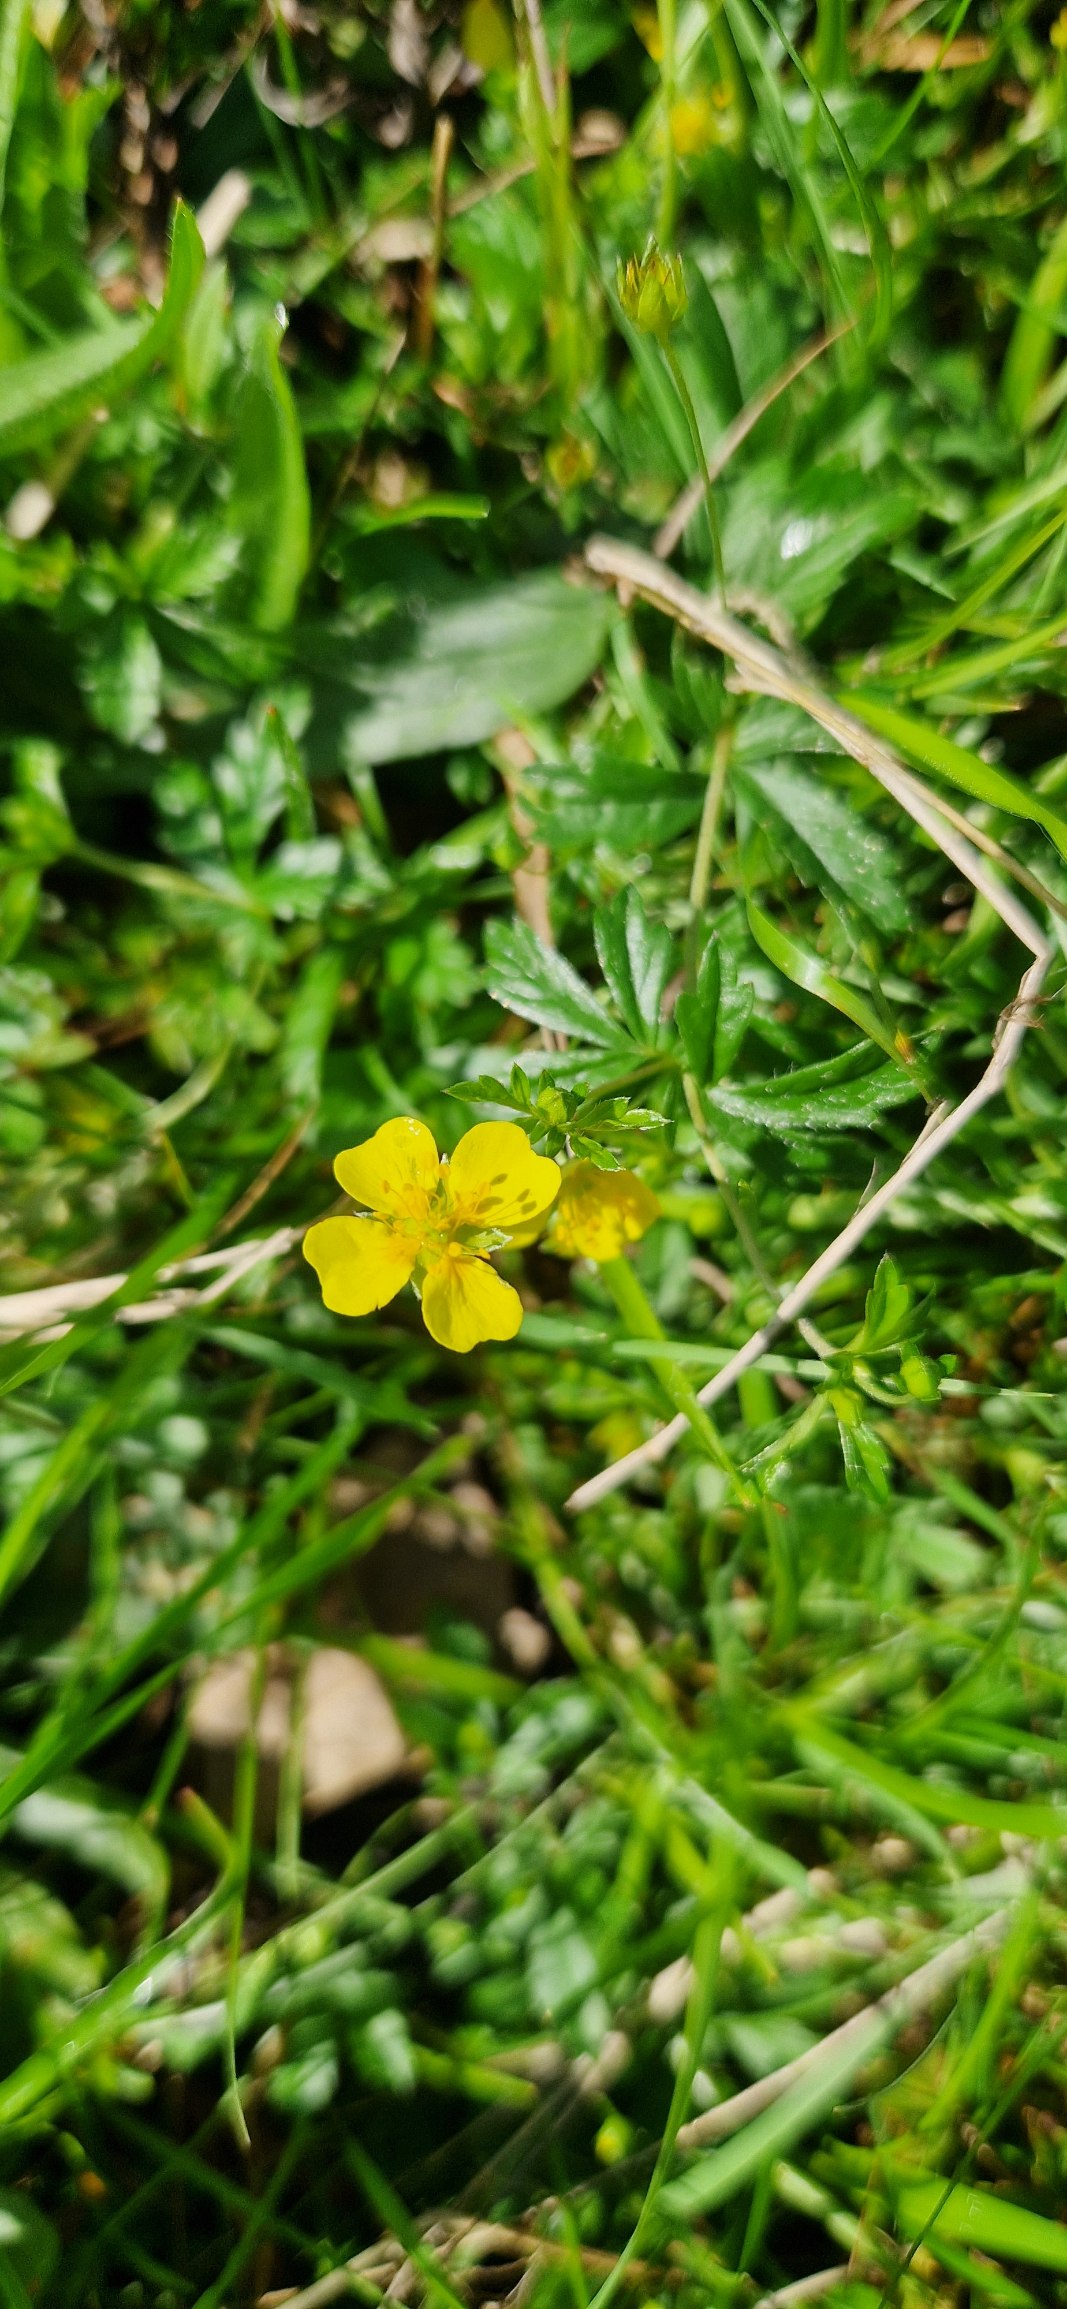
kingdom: Plantae
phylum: Tracheophyta
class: Magnoliopsida
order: Rosales
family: Rosaceae
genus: Potentilla
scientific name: Potentilla erecta
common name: Tormentil
